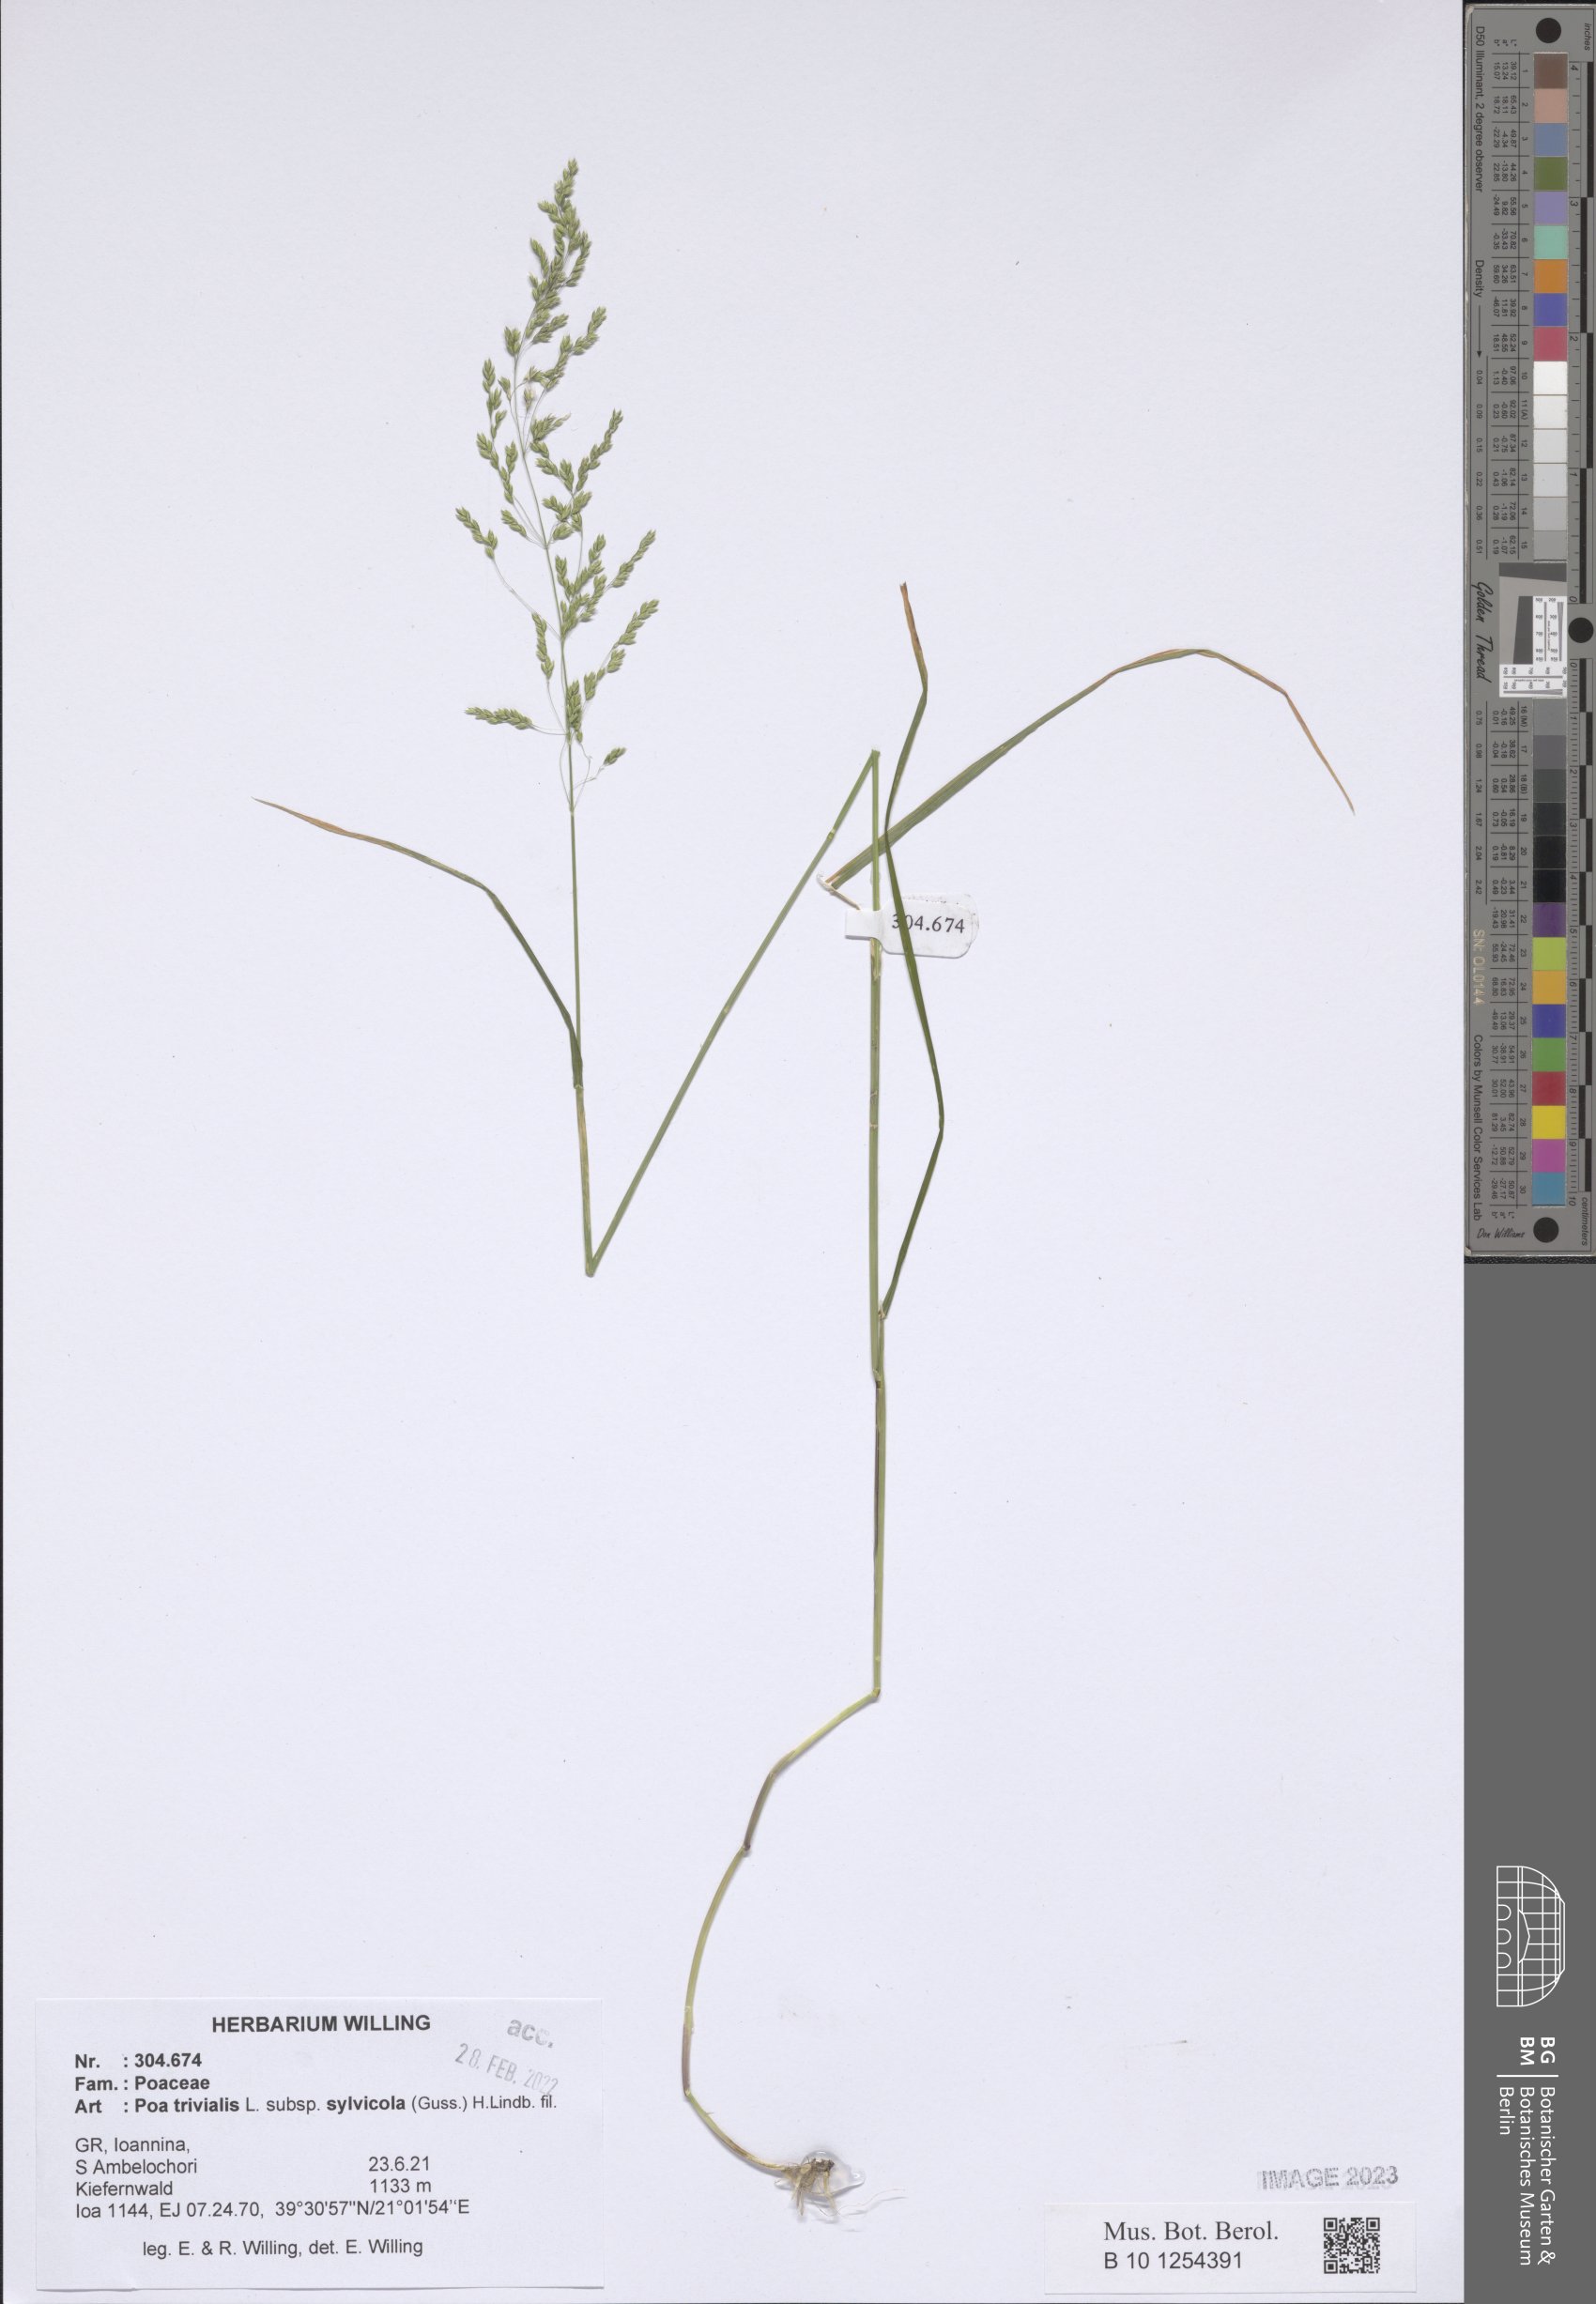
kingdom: Plantae
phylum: Tracheophyta
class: Liliopsida
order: Poales
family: Poaceae
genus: Poa
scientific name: Poa trivialis
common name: Rough bluegrass
